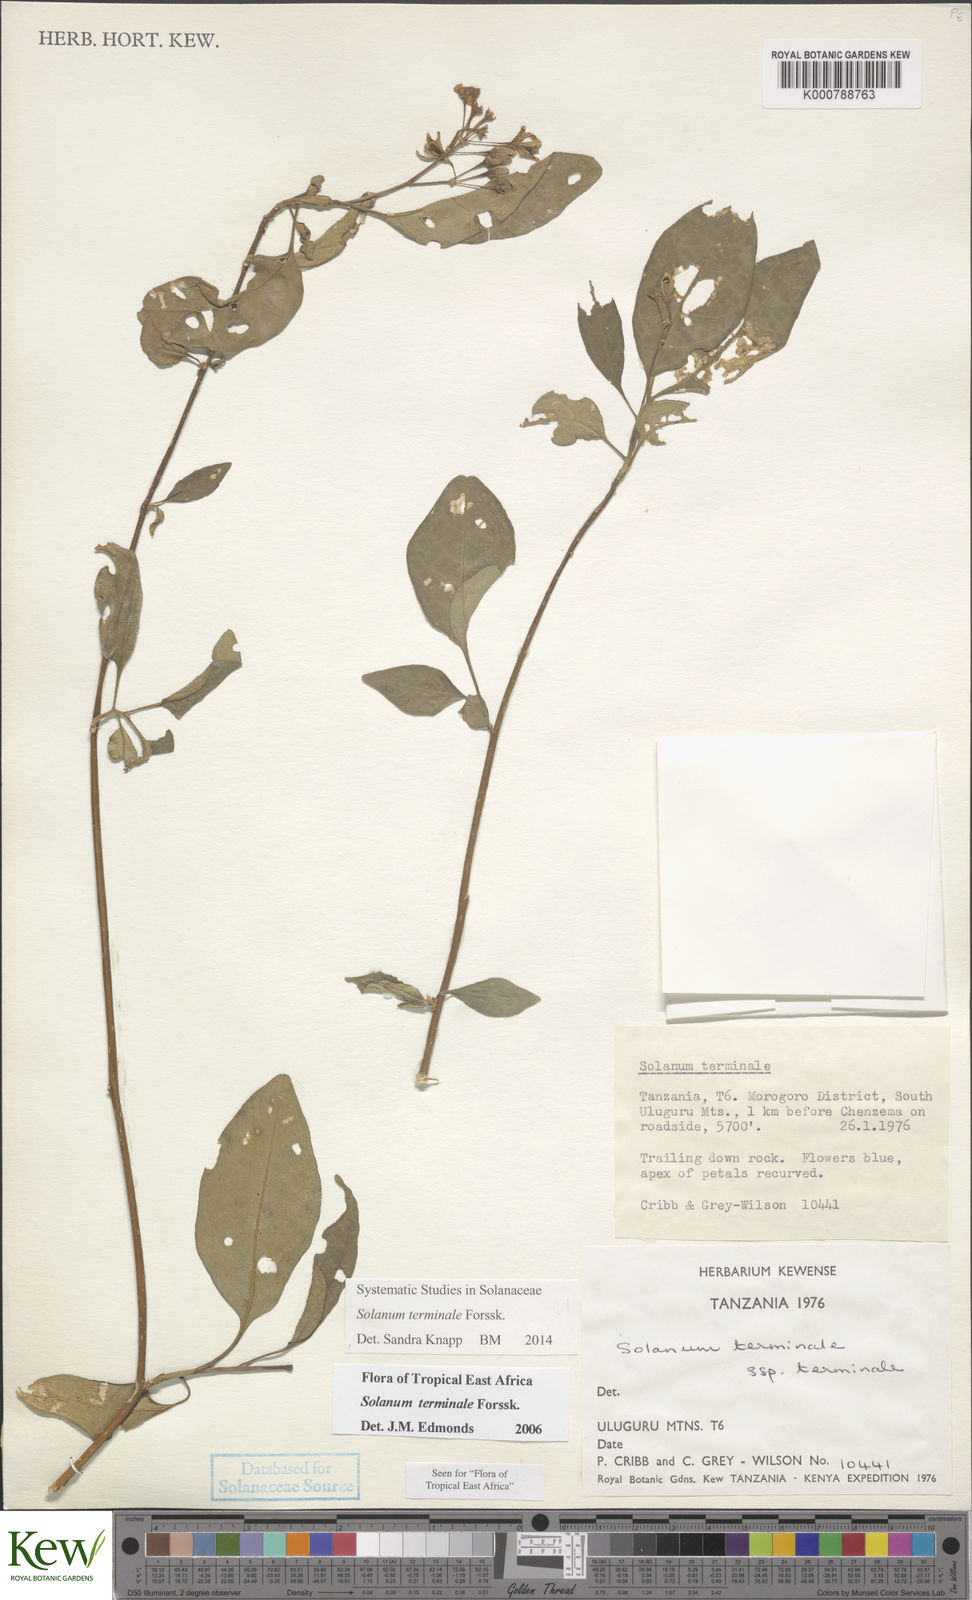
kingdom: Plantae
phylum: Tracheophyta
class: Magnoliopsida
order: Solanales
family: Solanaceae
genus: Solanum
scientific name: Solanum terminale
